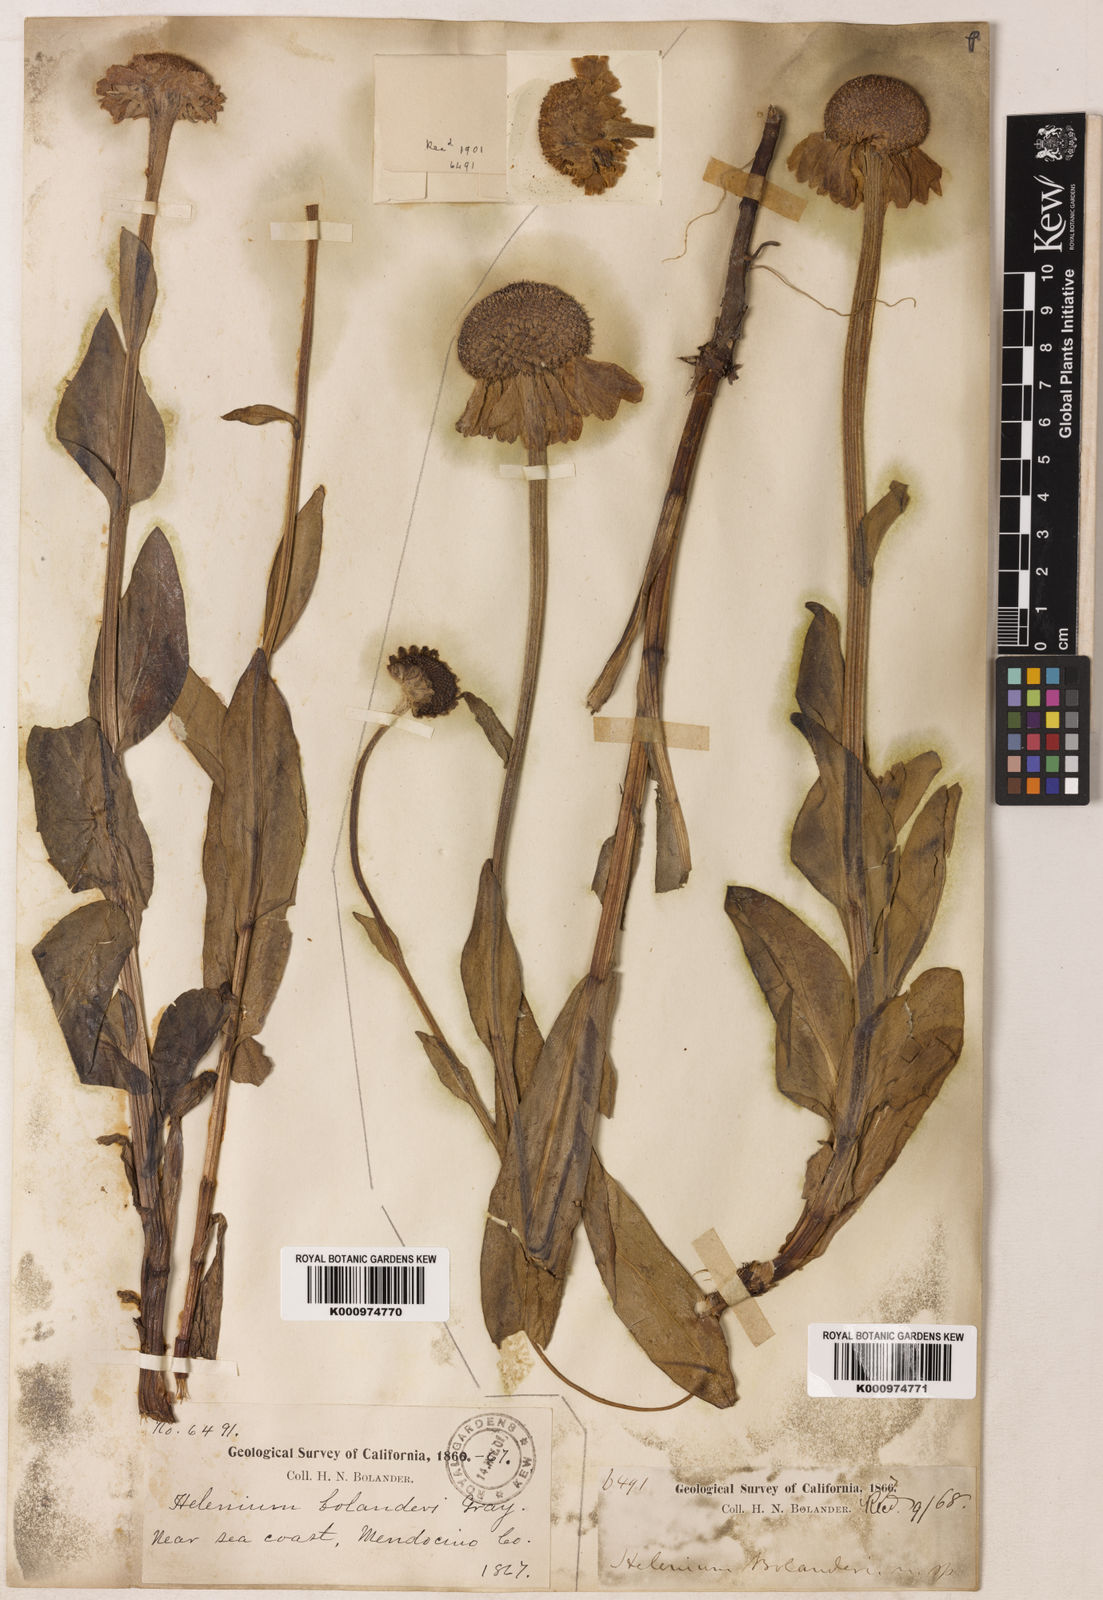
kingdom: Plantae
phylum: Tracheophyta
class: Magnoliopsida
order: Asterales
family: Asteraceae
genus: Helenium
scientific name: Helenium bolanderi
